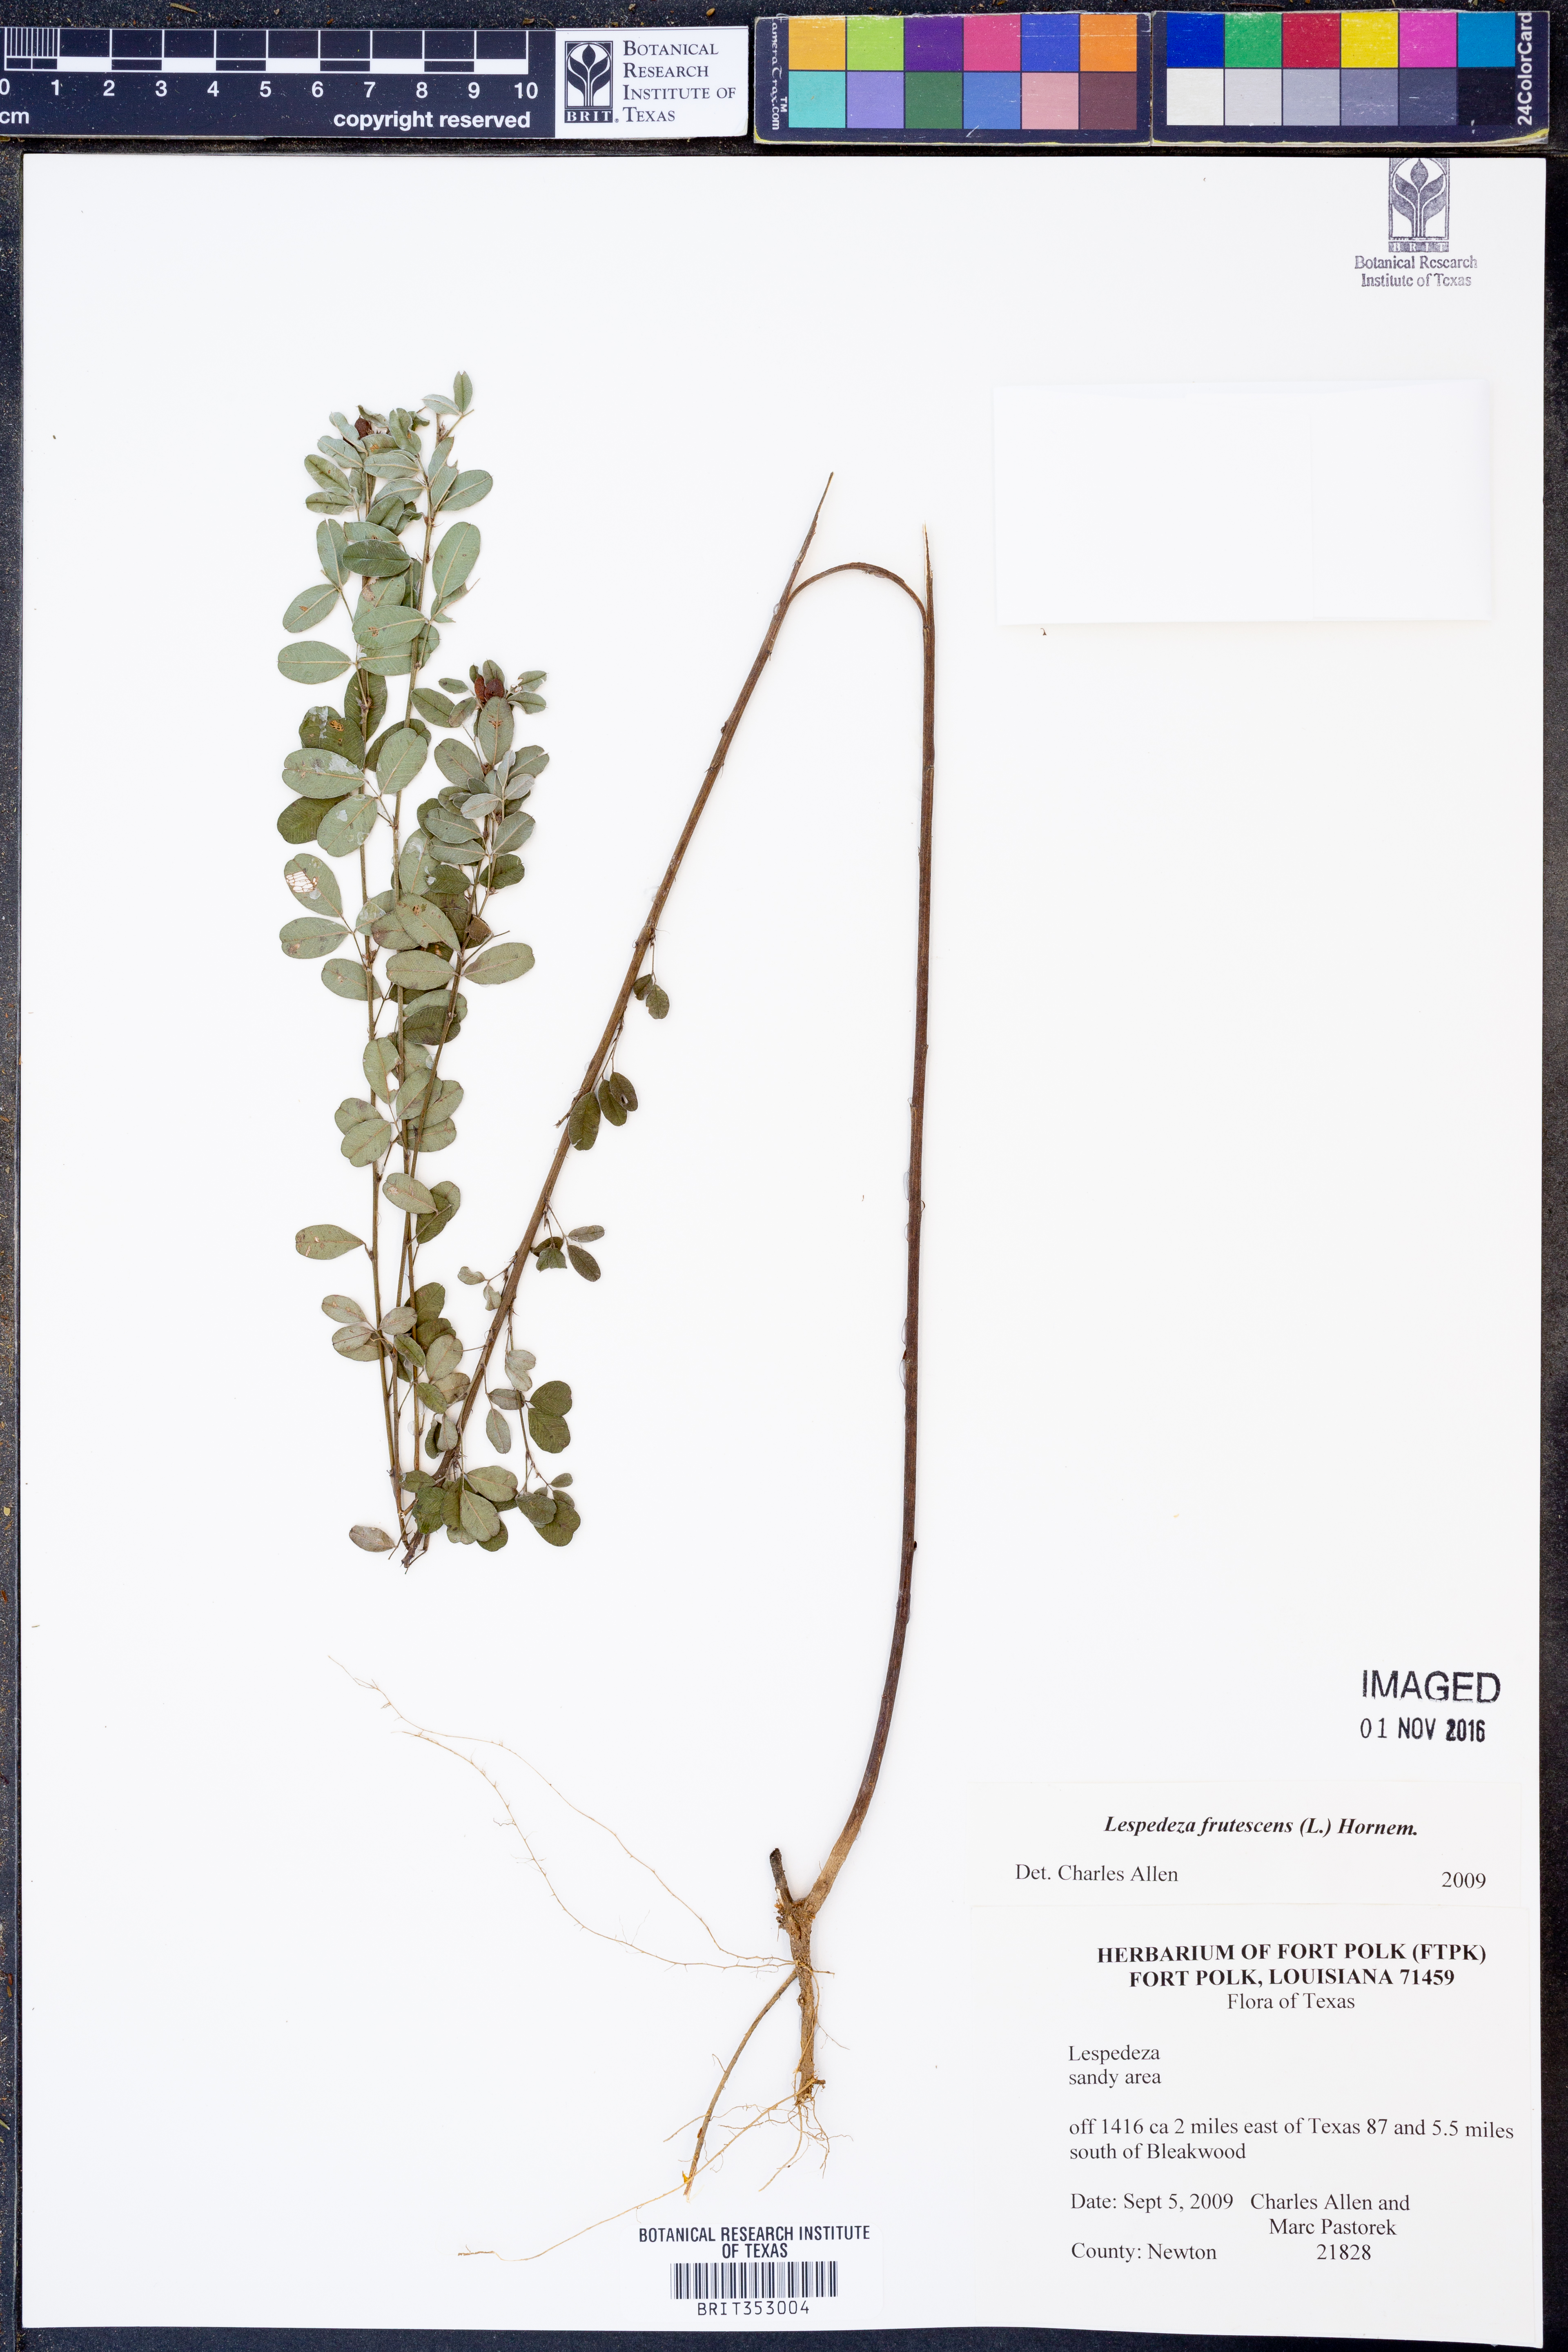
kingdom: Plantae
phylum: Tracheophyta
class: Magnoliopsida
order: Fabales
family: Fabaceae
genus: Lespedeza
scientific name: Lespedeza violacea
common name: Wand bush-clover
